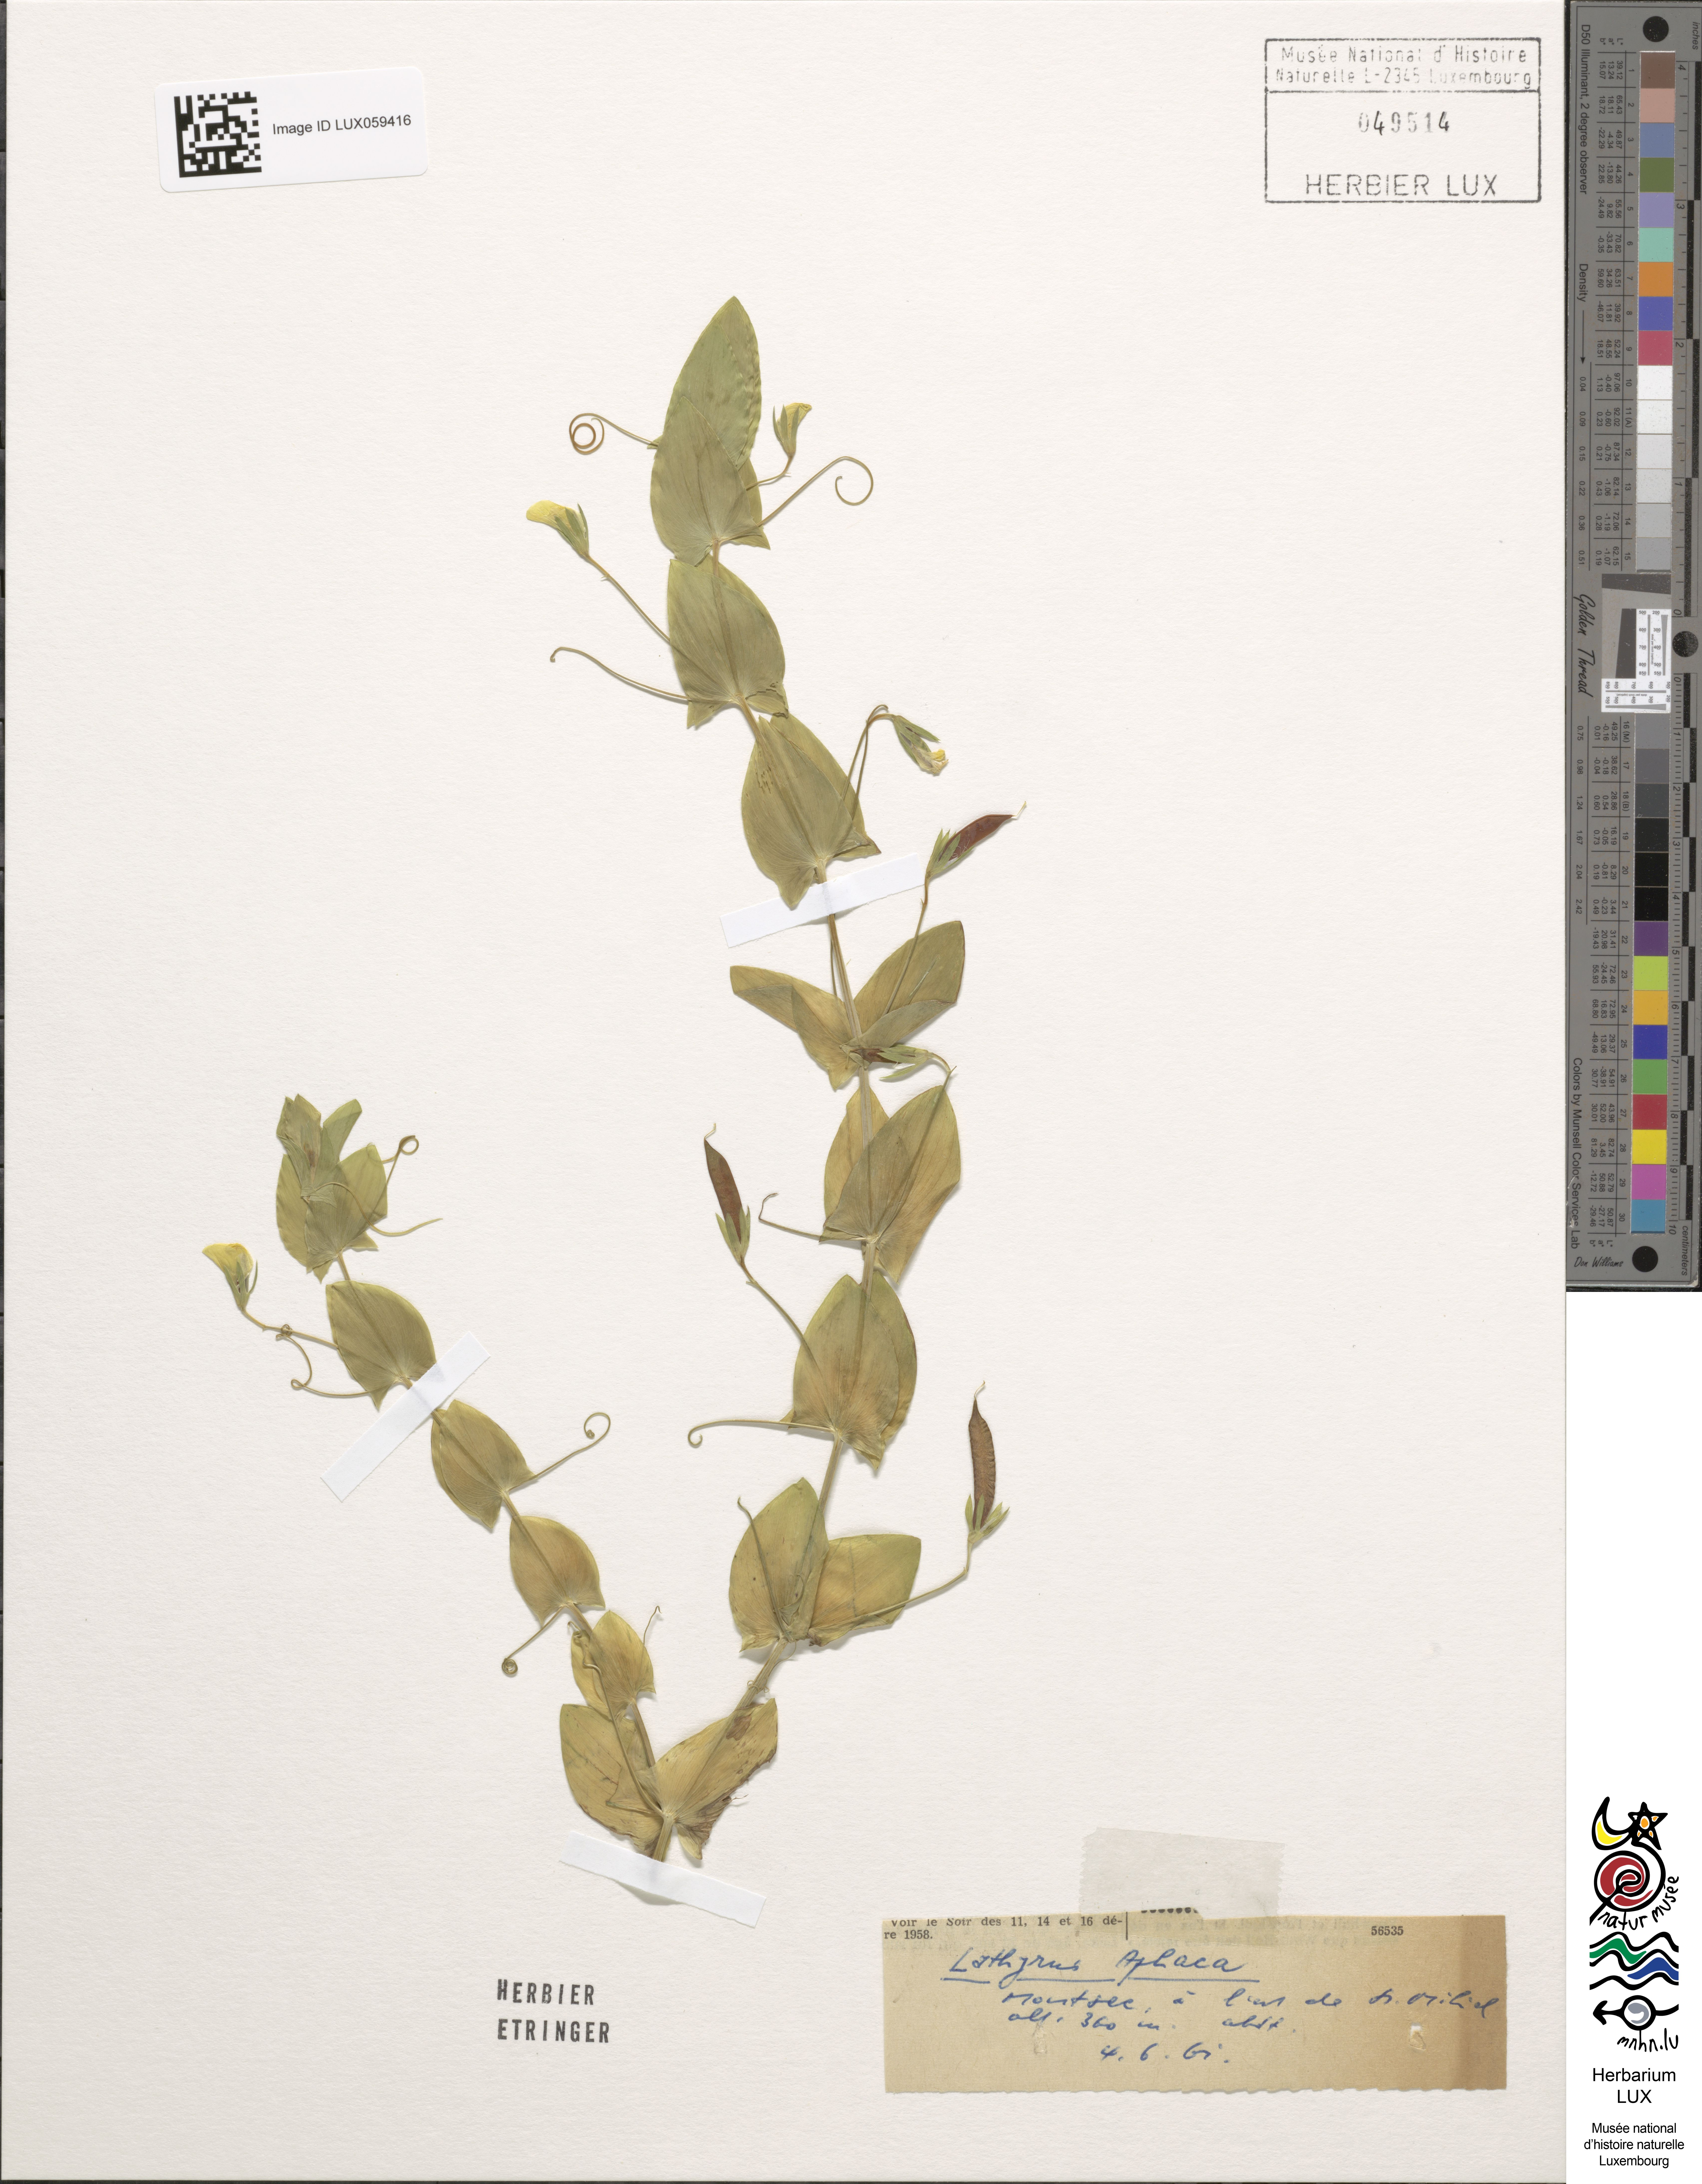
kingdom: Plantae
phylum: Tracheophyta
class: Magnoliopsida
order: Fabales
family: Fabaceae
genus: Lathyrus
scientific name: Lathyrus aphaca
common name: Yellow vetchling
